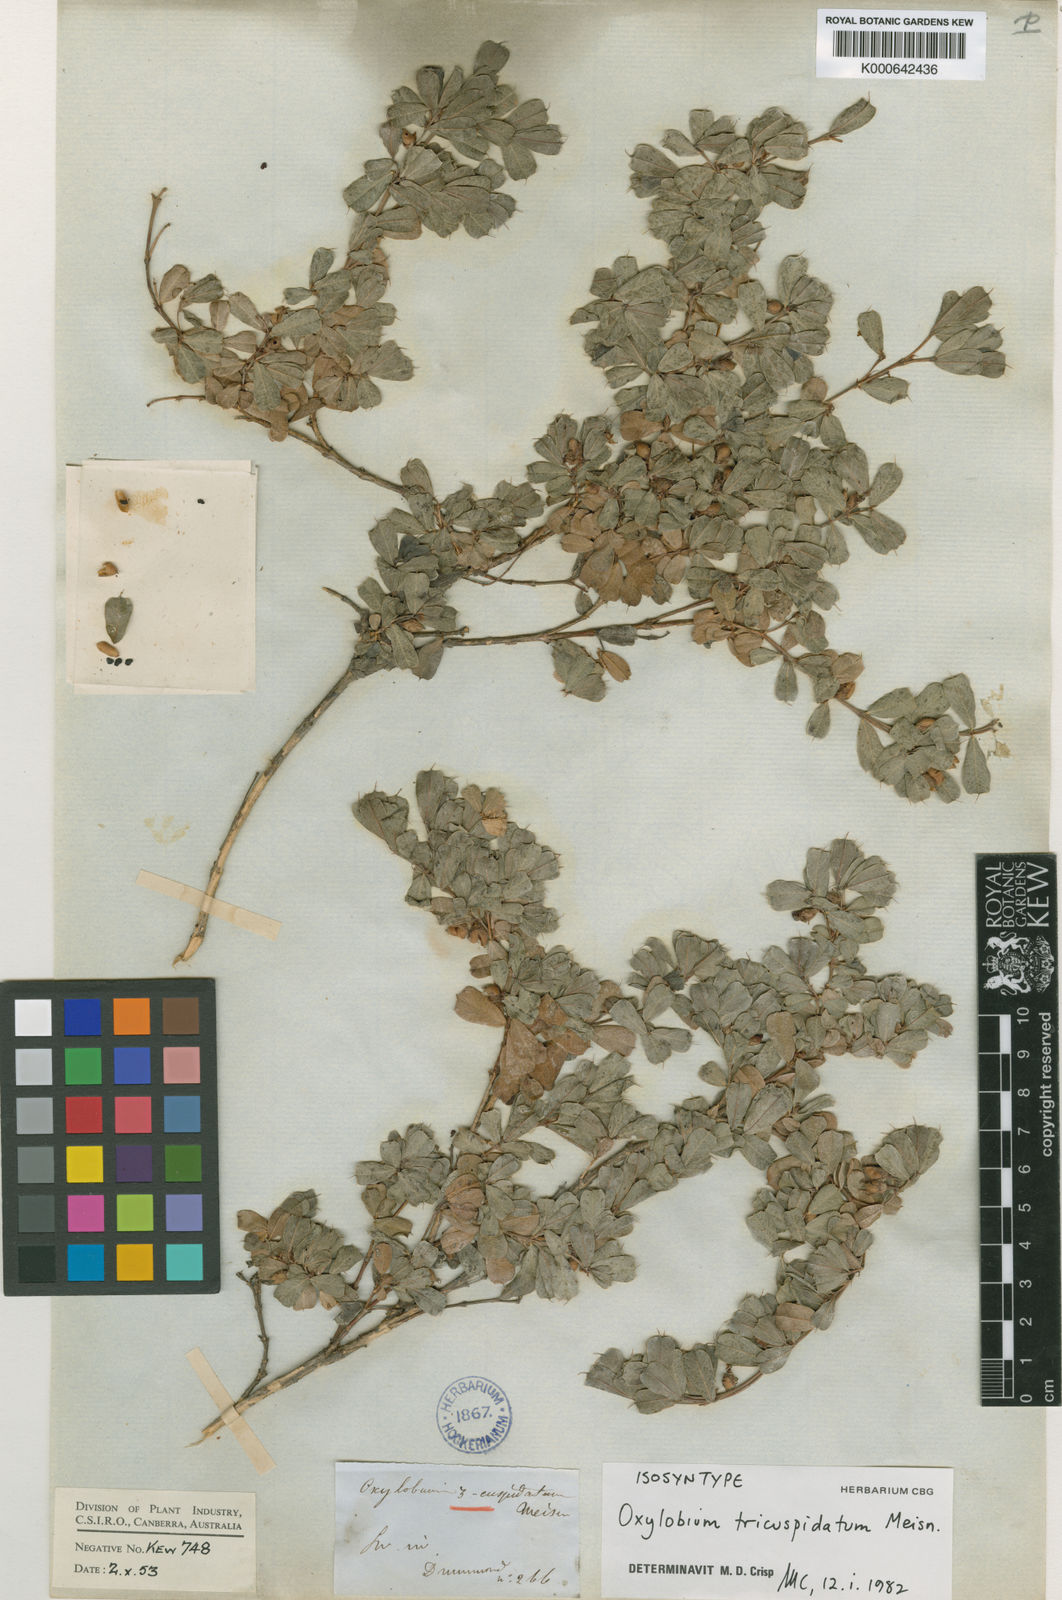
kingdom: Plantae
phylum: Tracheophyta
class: Magnoliopsida
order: Fabales
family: Fabaceae
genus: Gastrolobium
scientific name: Gastrolobium pusillum
